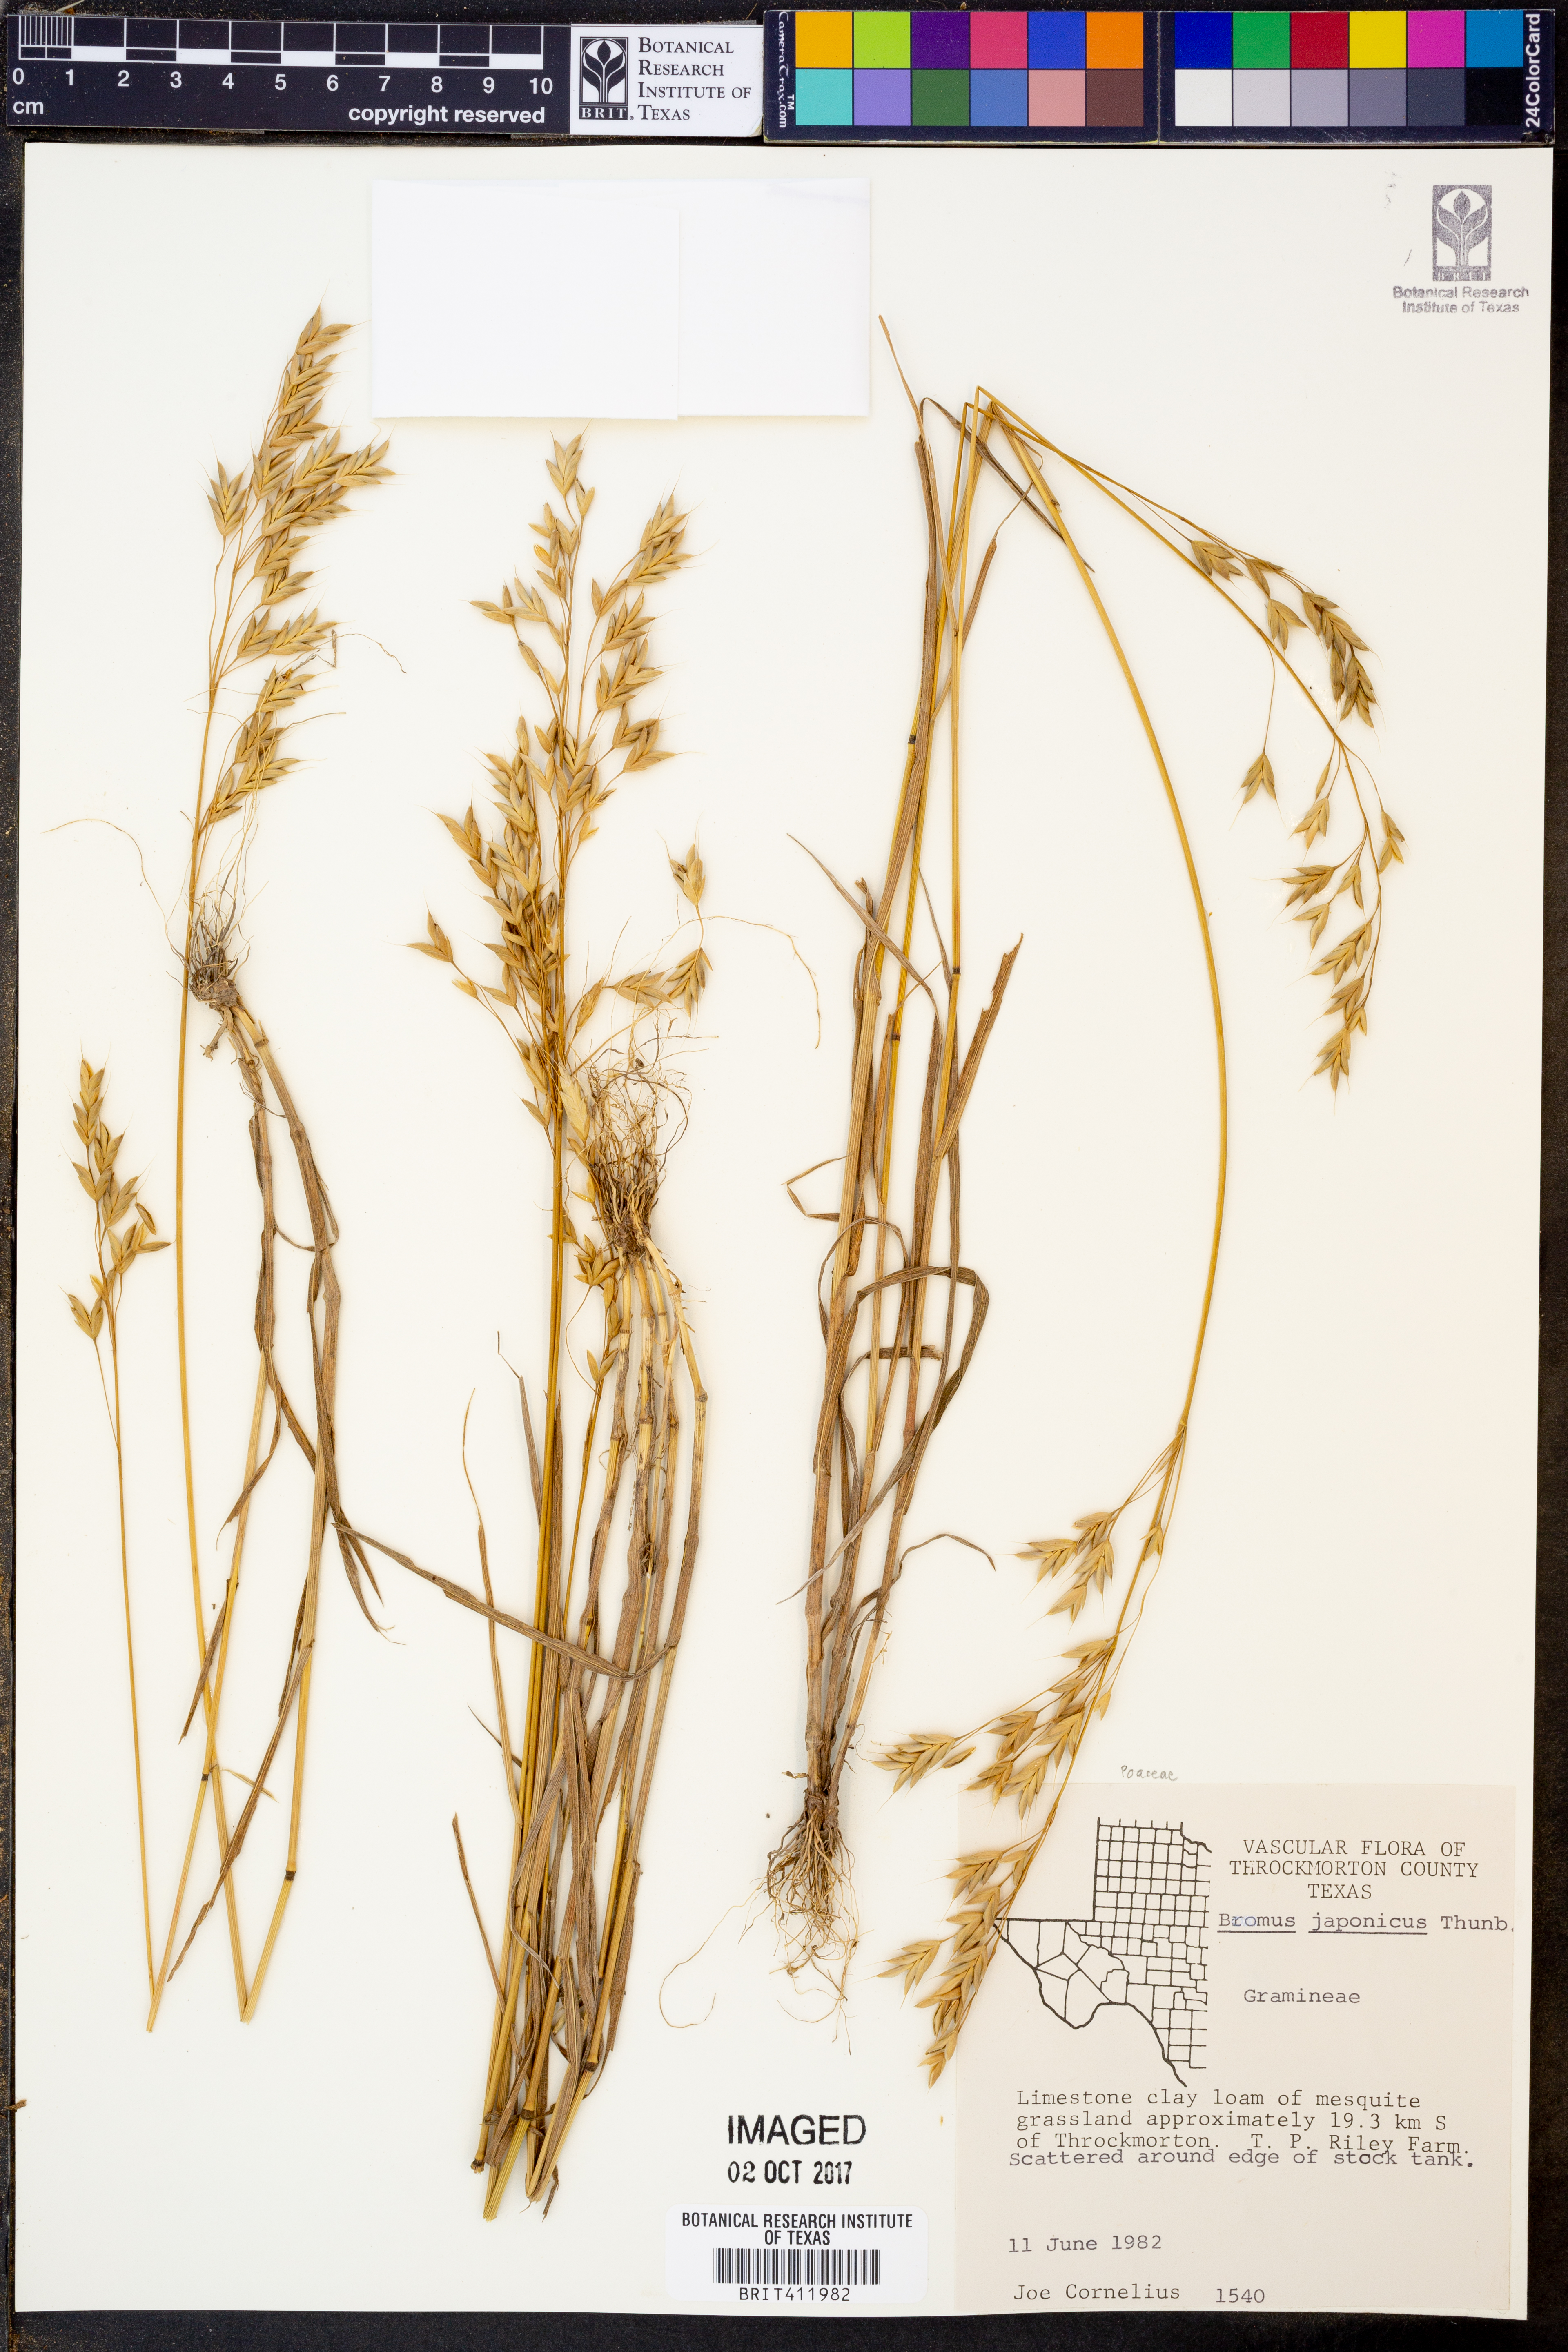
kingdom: Plantae
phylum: Tracheophyta
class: Liliopsida
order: Poales
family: Poaceae
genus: Bromus
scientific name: Bromus japonicus
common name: Japanese brome
